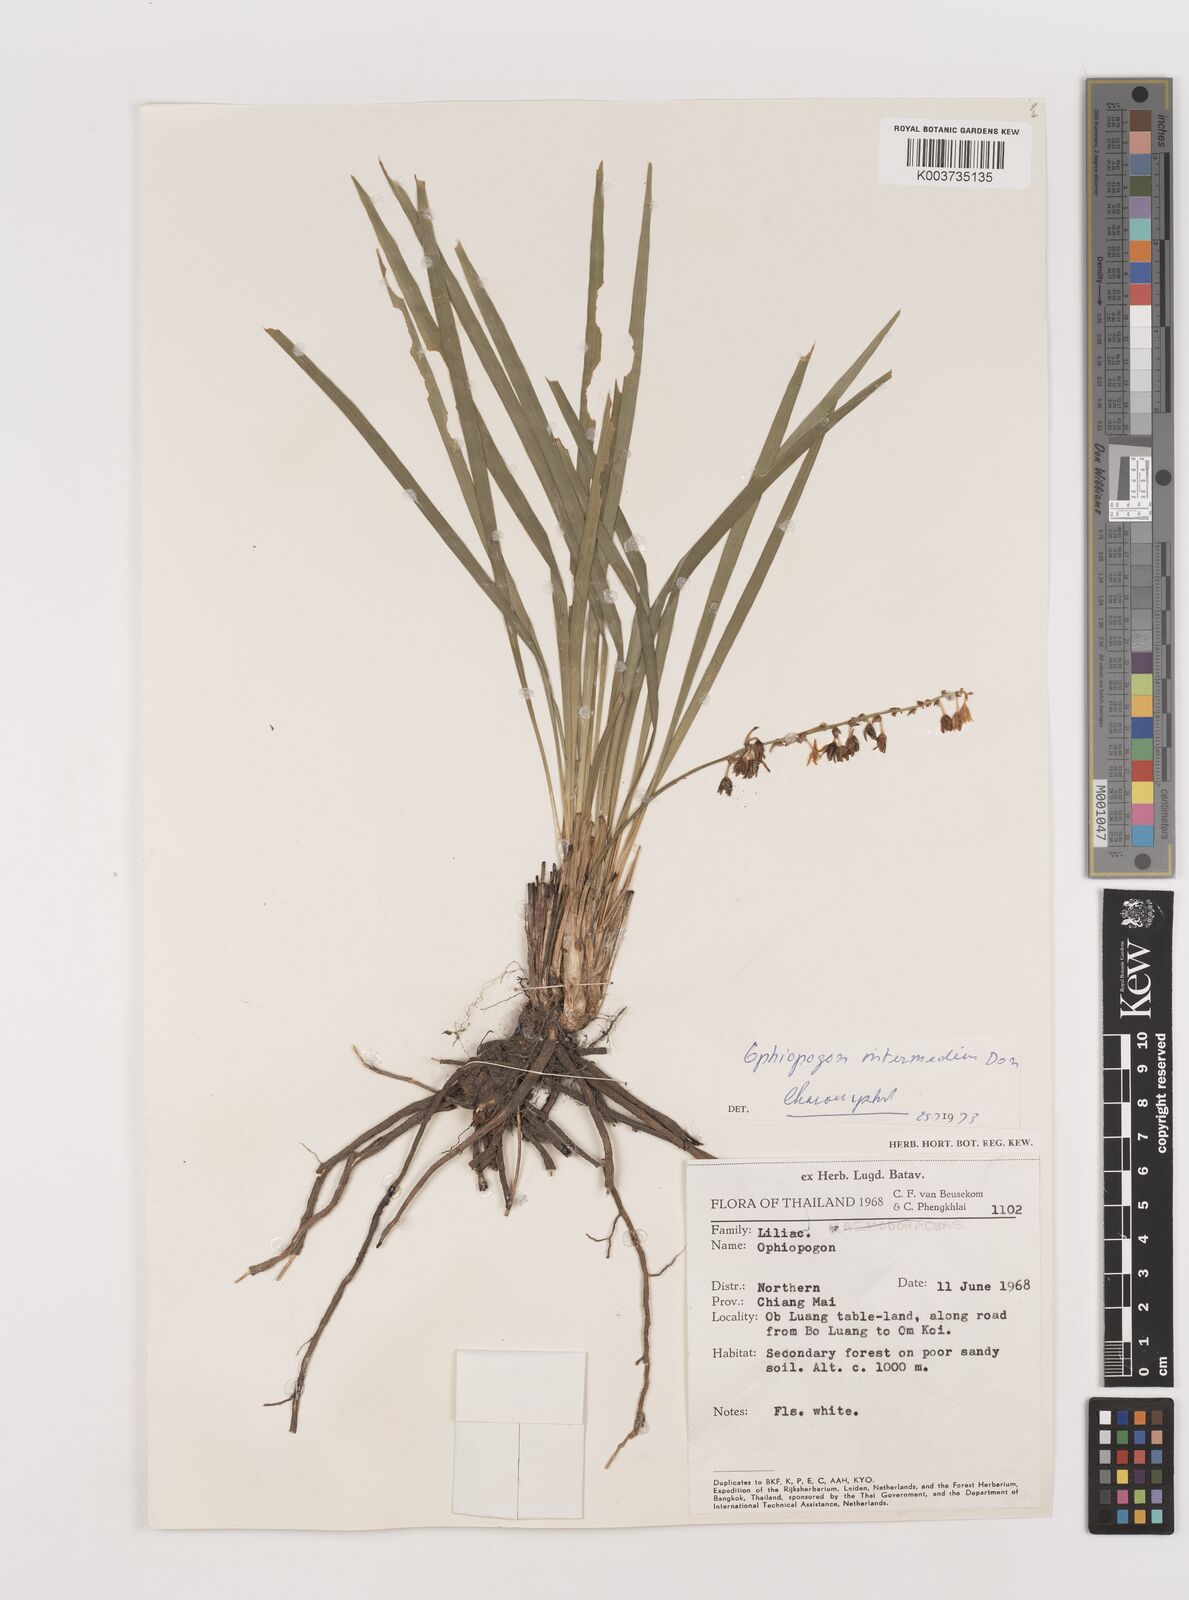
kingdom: Plantae
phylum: Tracheophyta
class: Liliopsida
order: Asparagales
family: Asparagaceae
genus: Ophiopogon
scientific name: Ophiopogon intermedius
